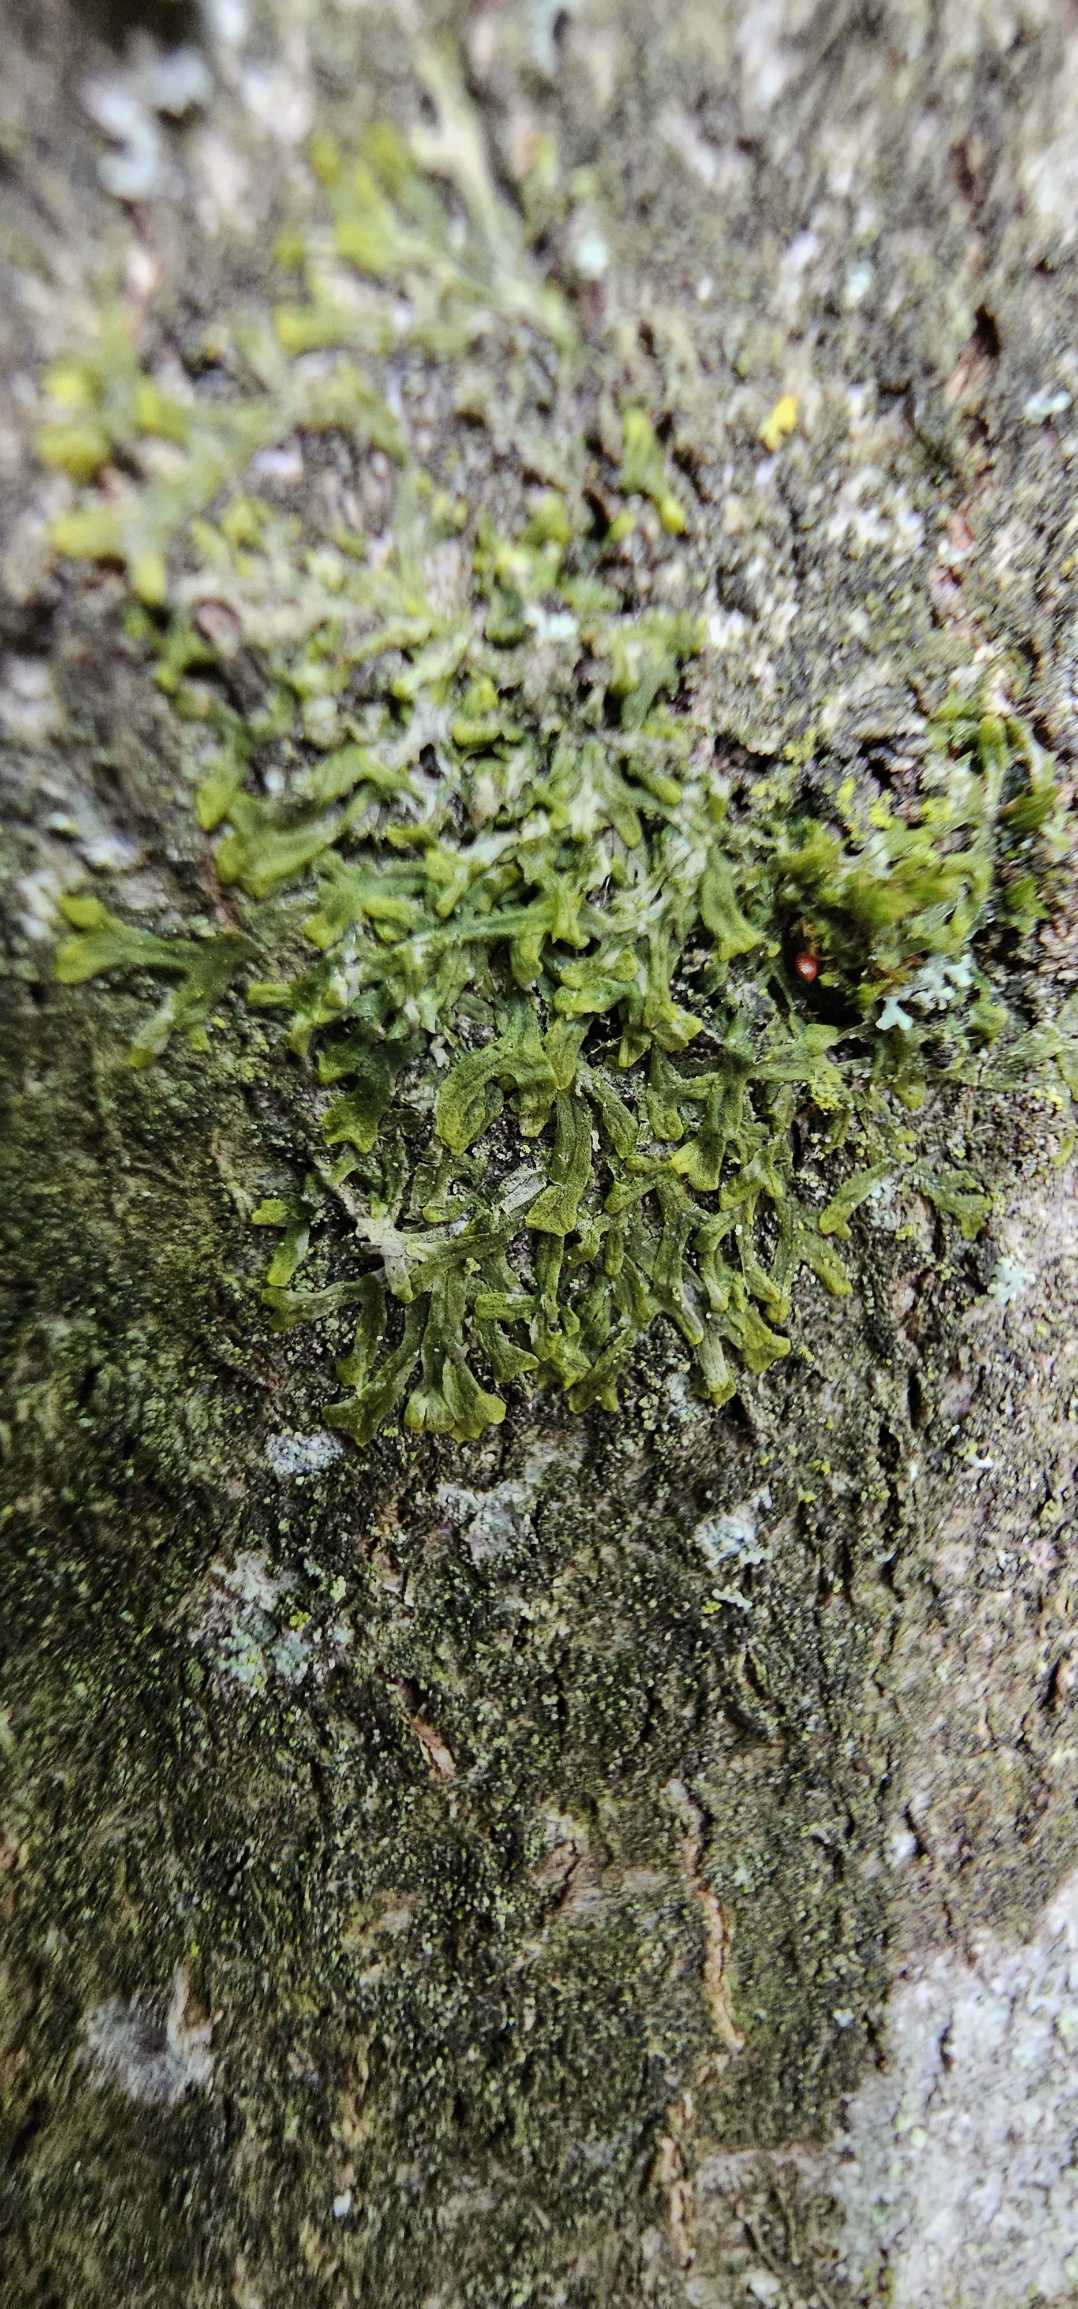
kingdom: Plantae
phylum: Marchantiophyta
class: Jungermanniopsida
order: Metzgeriales
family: Metzgeriaceae
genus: Metzgeria
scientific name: Metzgeria furcata
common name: Almindelig gaffelløv
